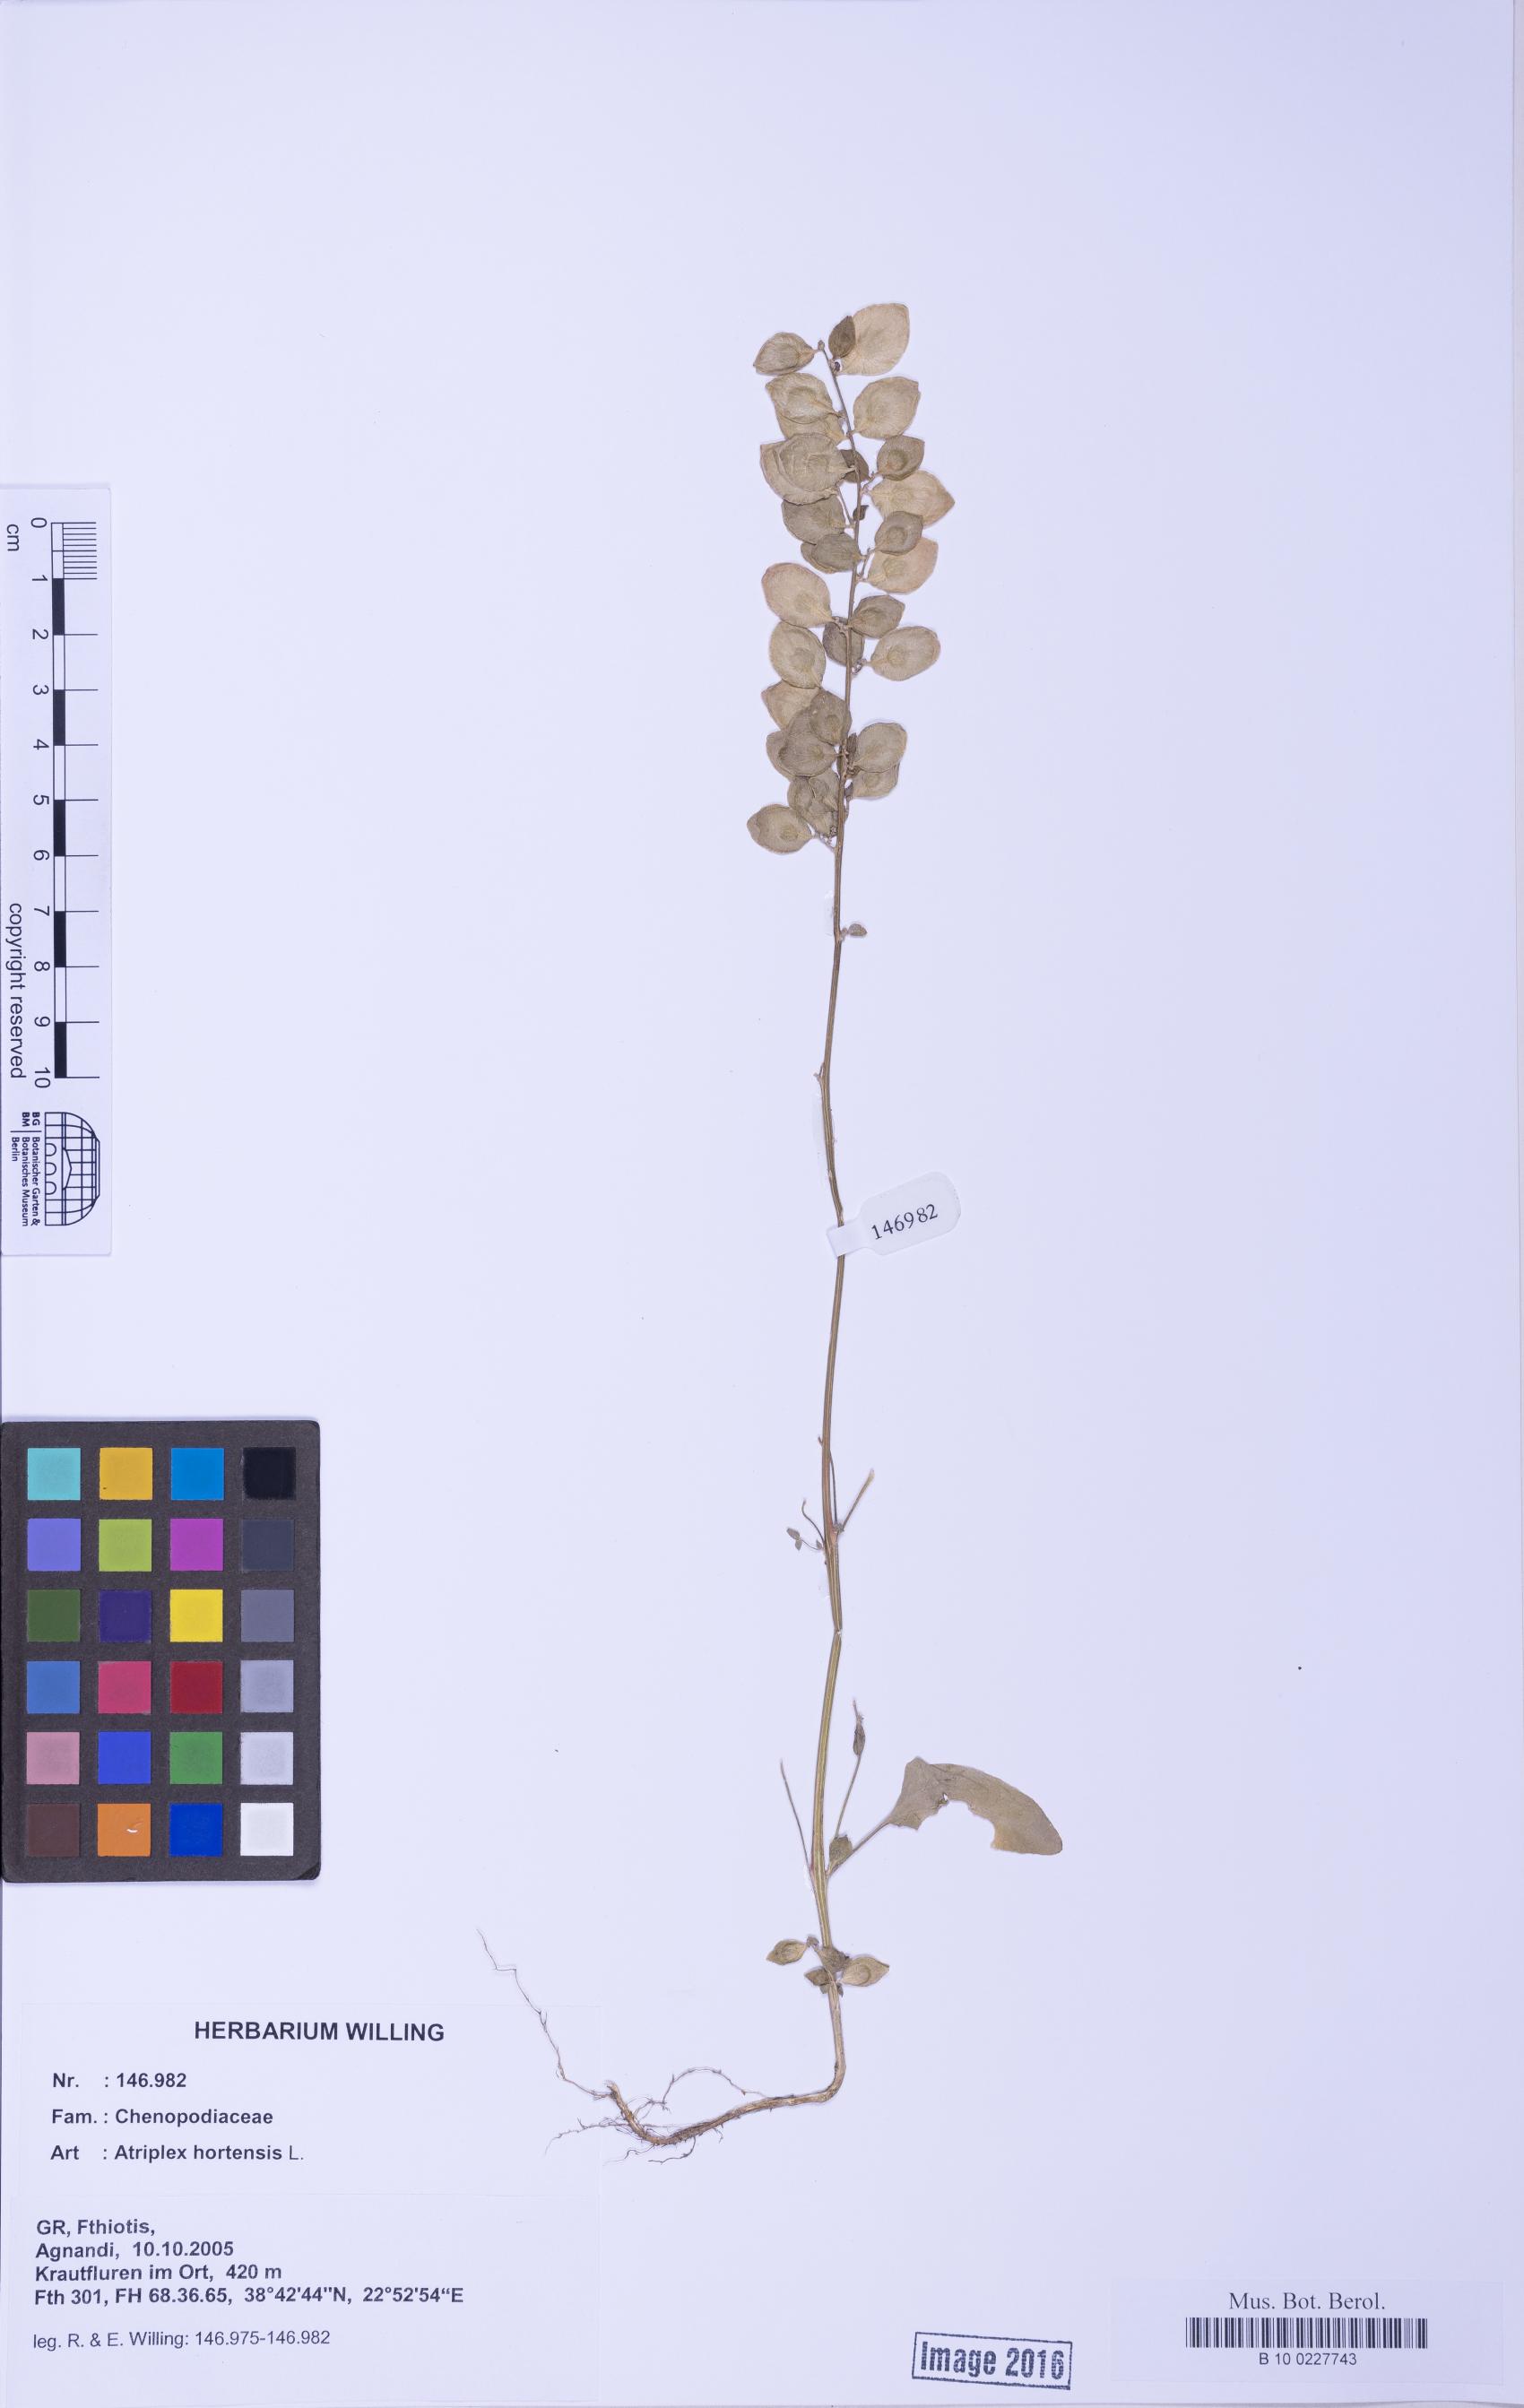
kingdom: Plantae
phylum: Tracheophyta
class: Magnoliopsida
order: Caryophyllales
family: Amaranthaceae
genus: Atriplex
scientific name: Atriplex hortensis
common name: Garden orache
